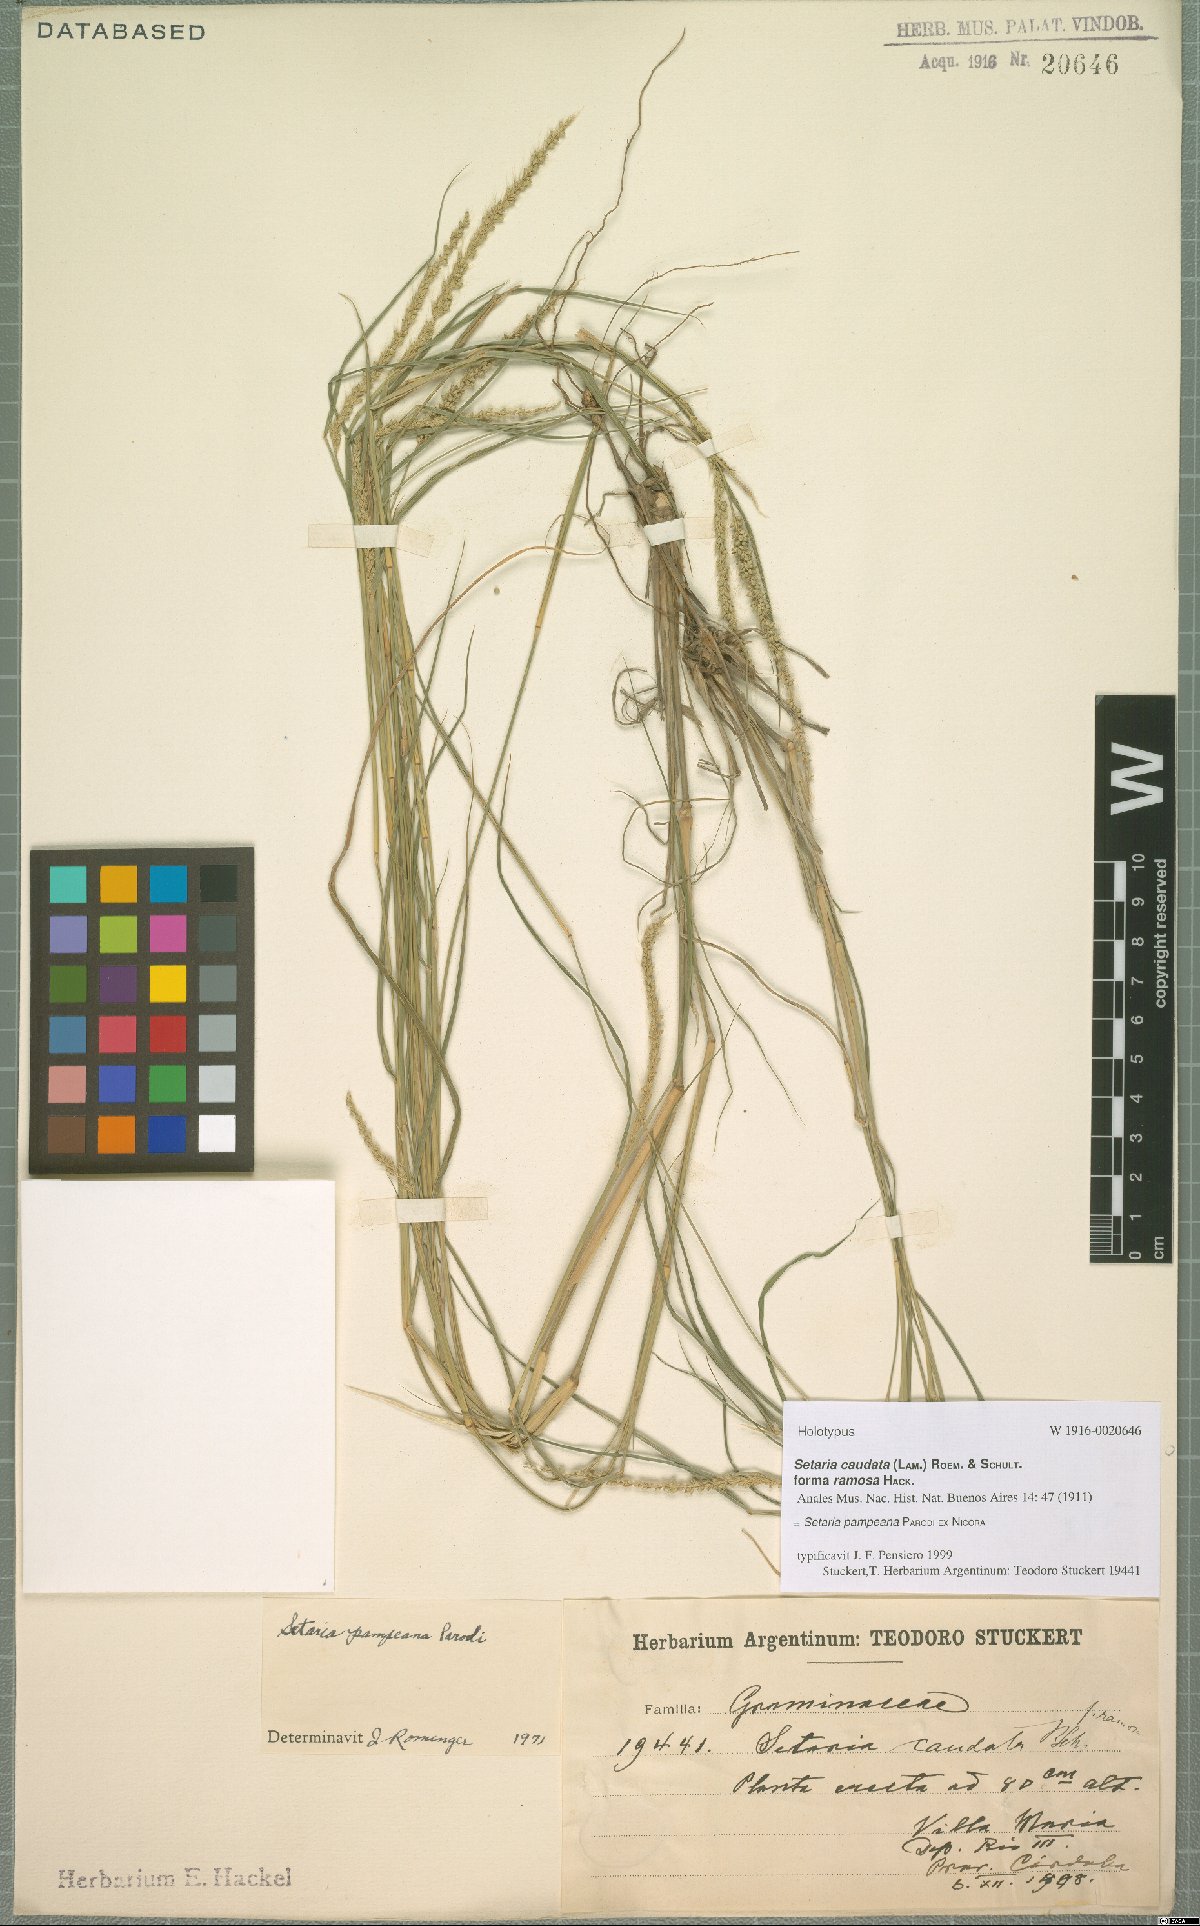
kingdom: Plantae
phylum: Tracheophyta
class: Liliopsida
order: Poales
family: Poaceae
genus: Setaria
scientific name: Setaria pampeana
